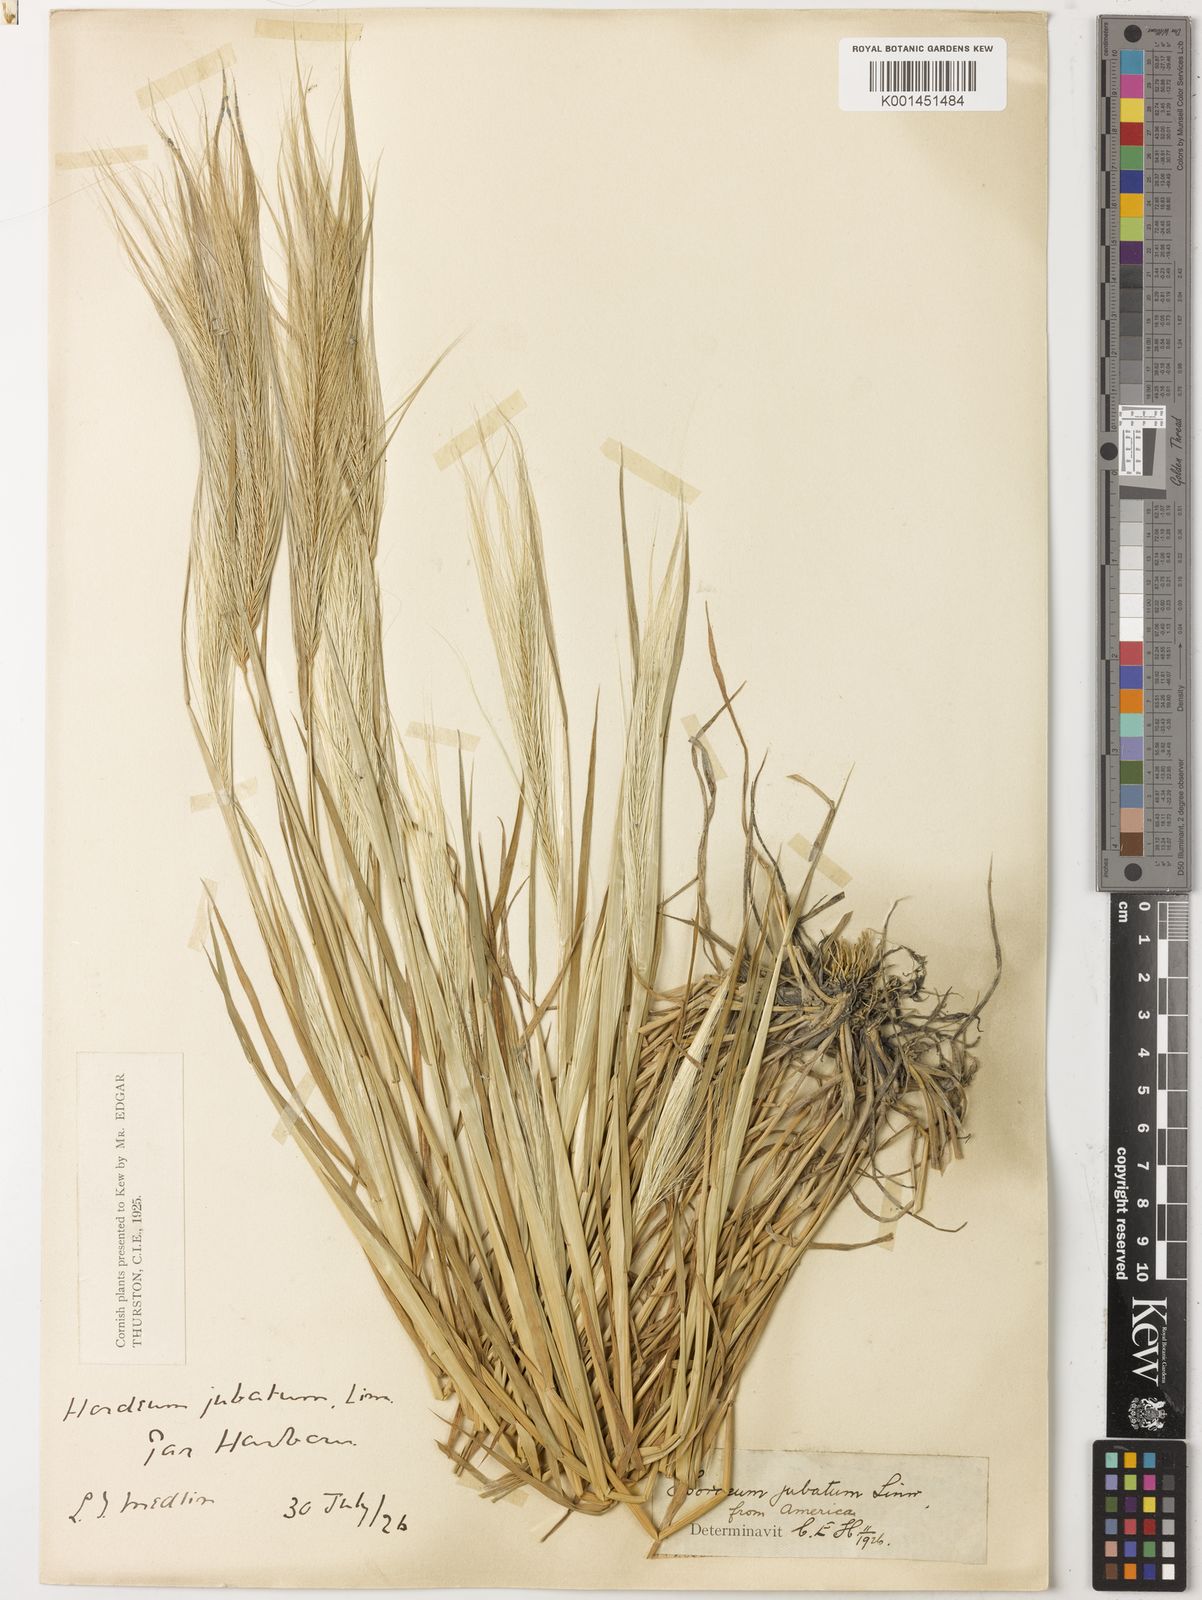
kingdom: Plantae
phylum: Tracheophyta
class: Liliopsida
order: Poales
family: Poaceae
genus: Hordeum
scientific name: Hordeum jubatum
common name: Foxtail barley
